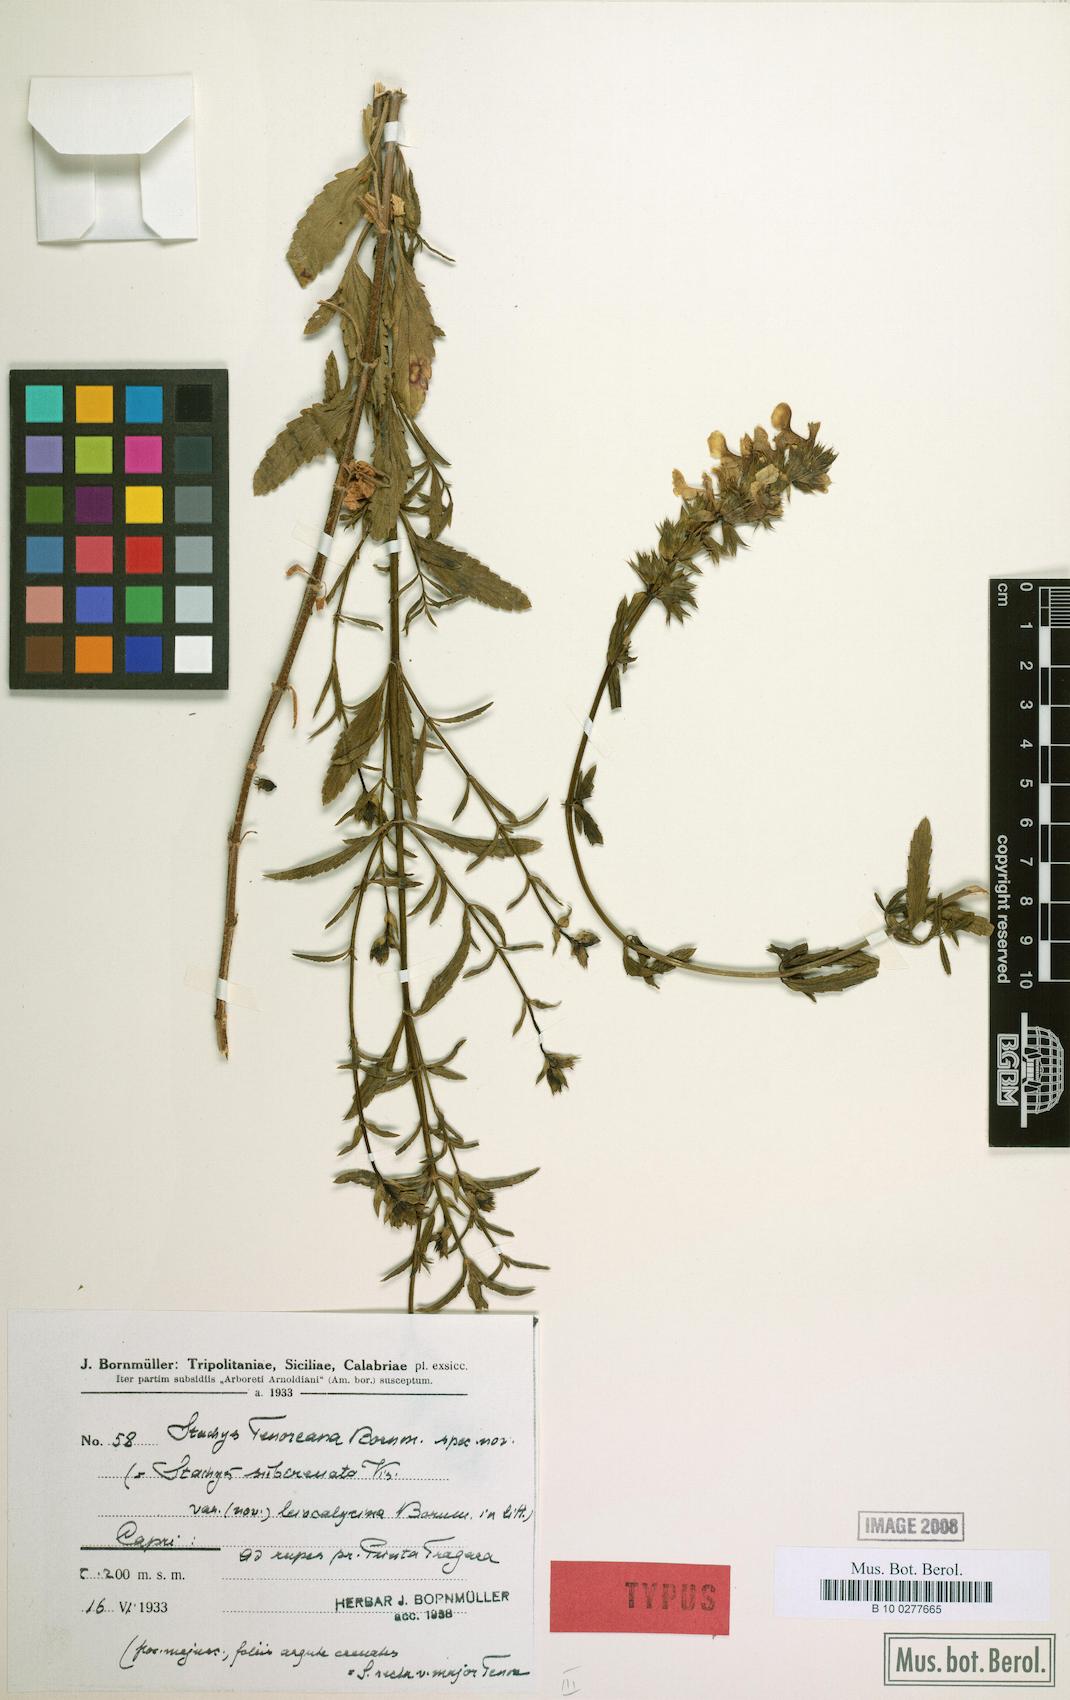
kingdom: Plantae
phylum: Tracheophyta
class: Magnoliopsida
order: Lamiales
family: Lamiaceae
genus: Stachys
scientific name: Stachys recta
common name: Perennial yellow-woundwort
